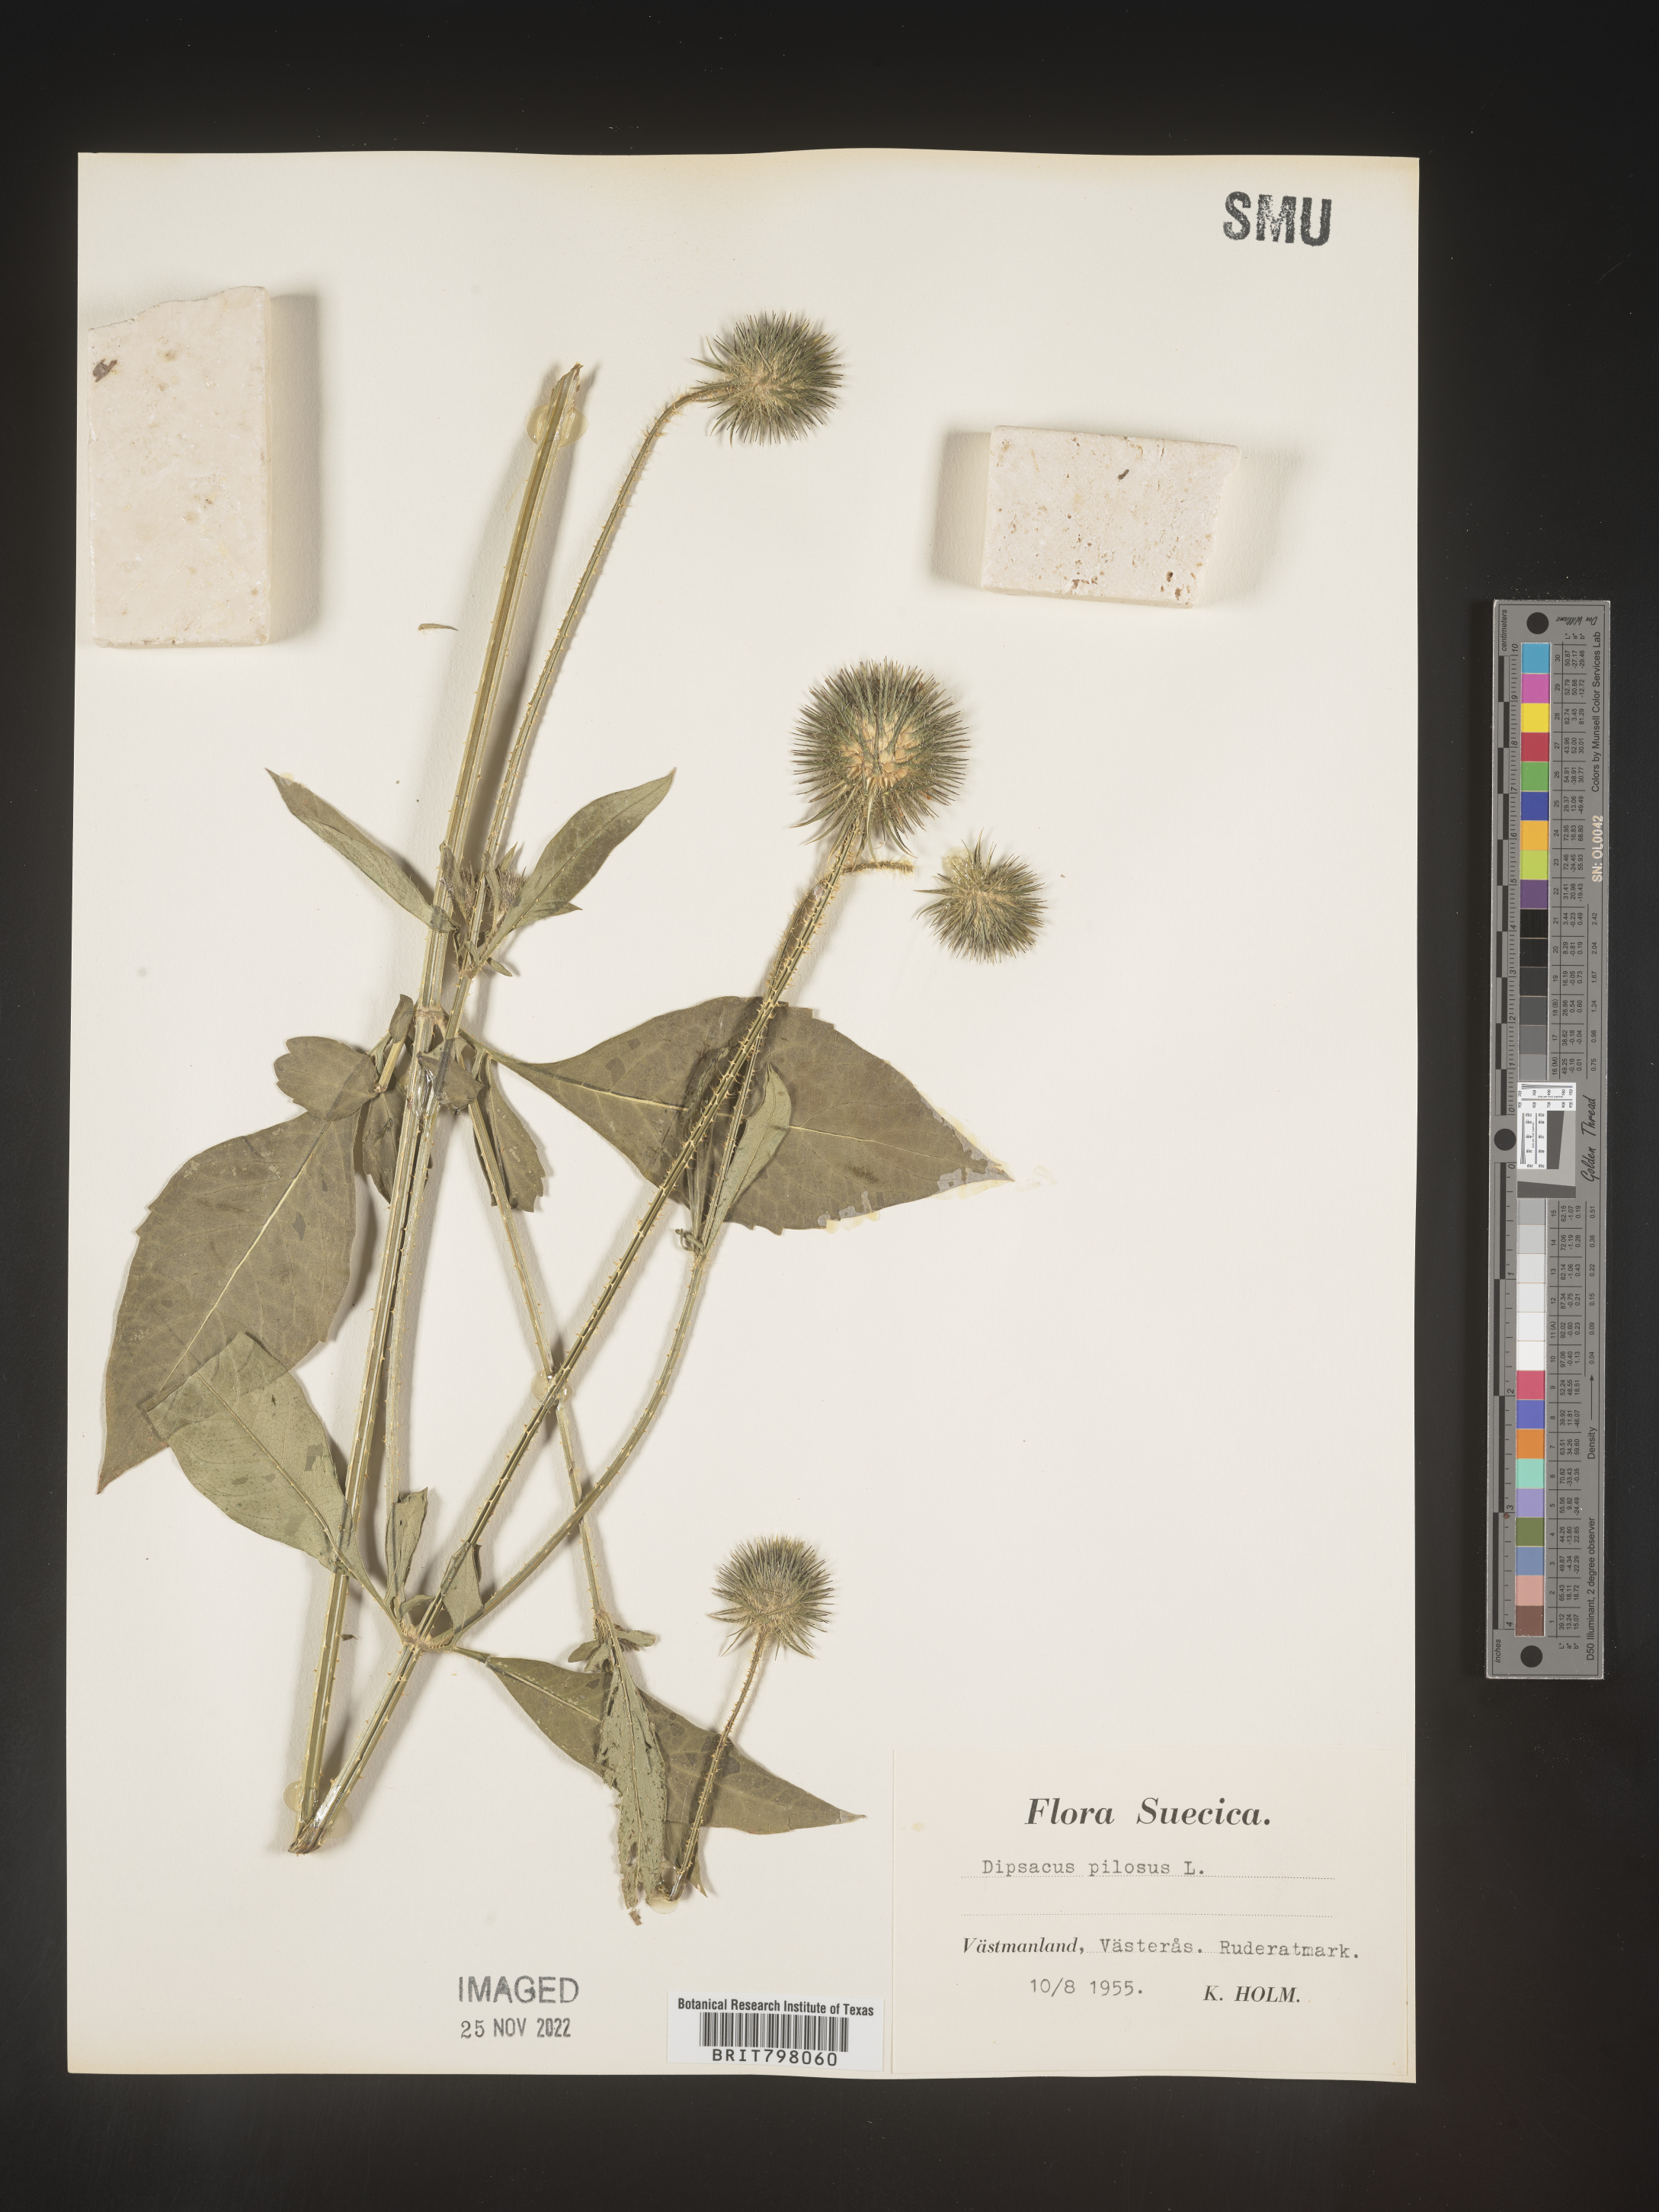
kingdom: Plantae
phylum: Tracheophyta
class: Magnoliopsida
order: Dipsacales
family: Caprifoliaceae
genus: Dipsacus
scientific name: Dipsacus
